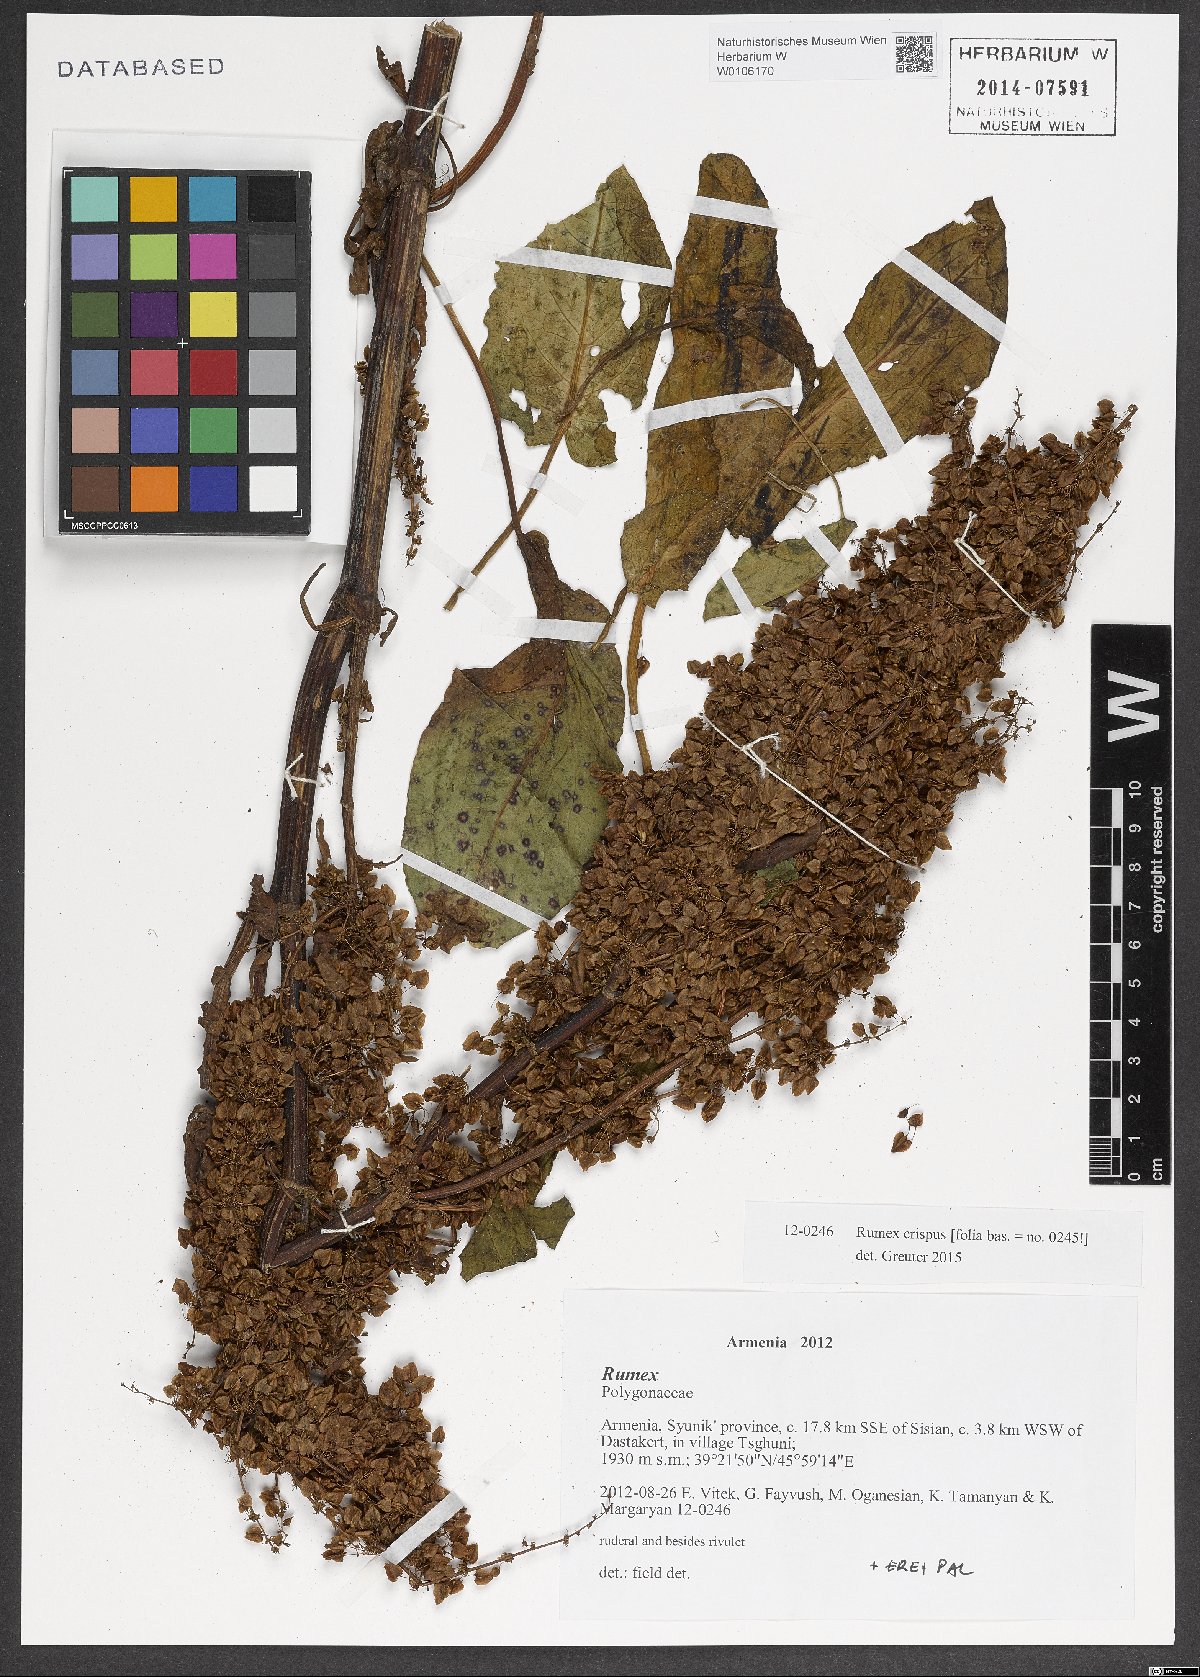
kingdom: Plantae
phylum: Tracheophyta
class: Magnoliopsida
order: Caryophyllales
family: Polygonaceae
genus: Rumex
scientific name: Rumex crispus
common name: Curled dock
